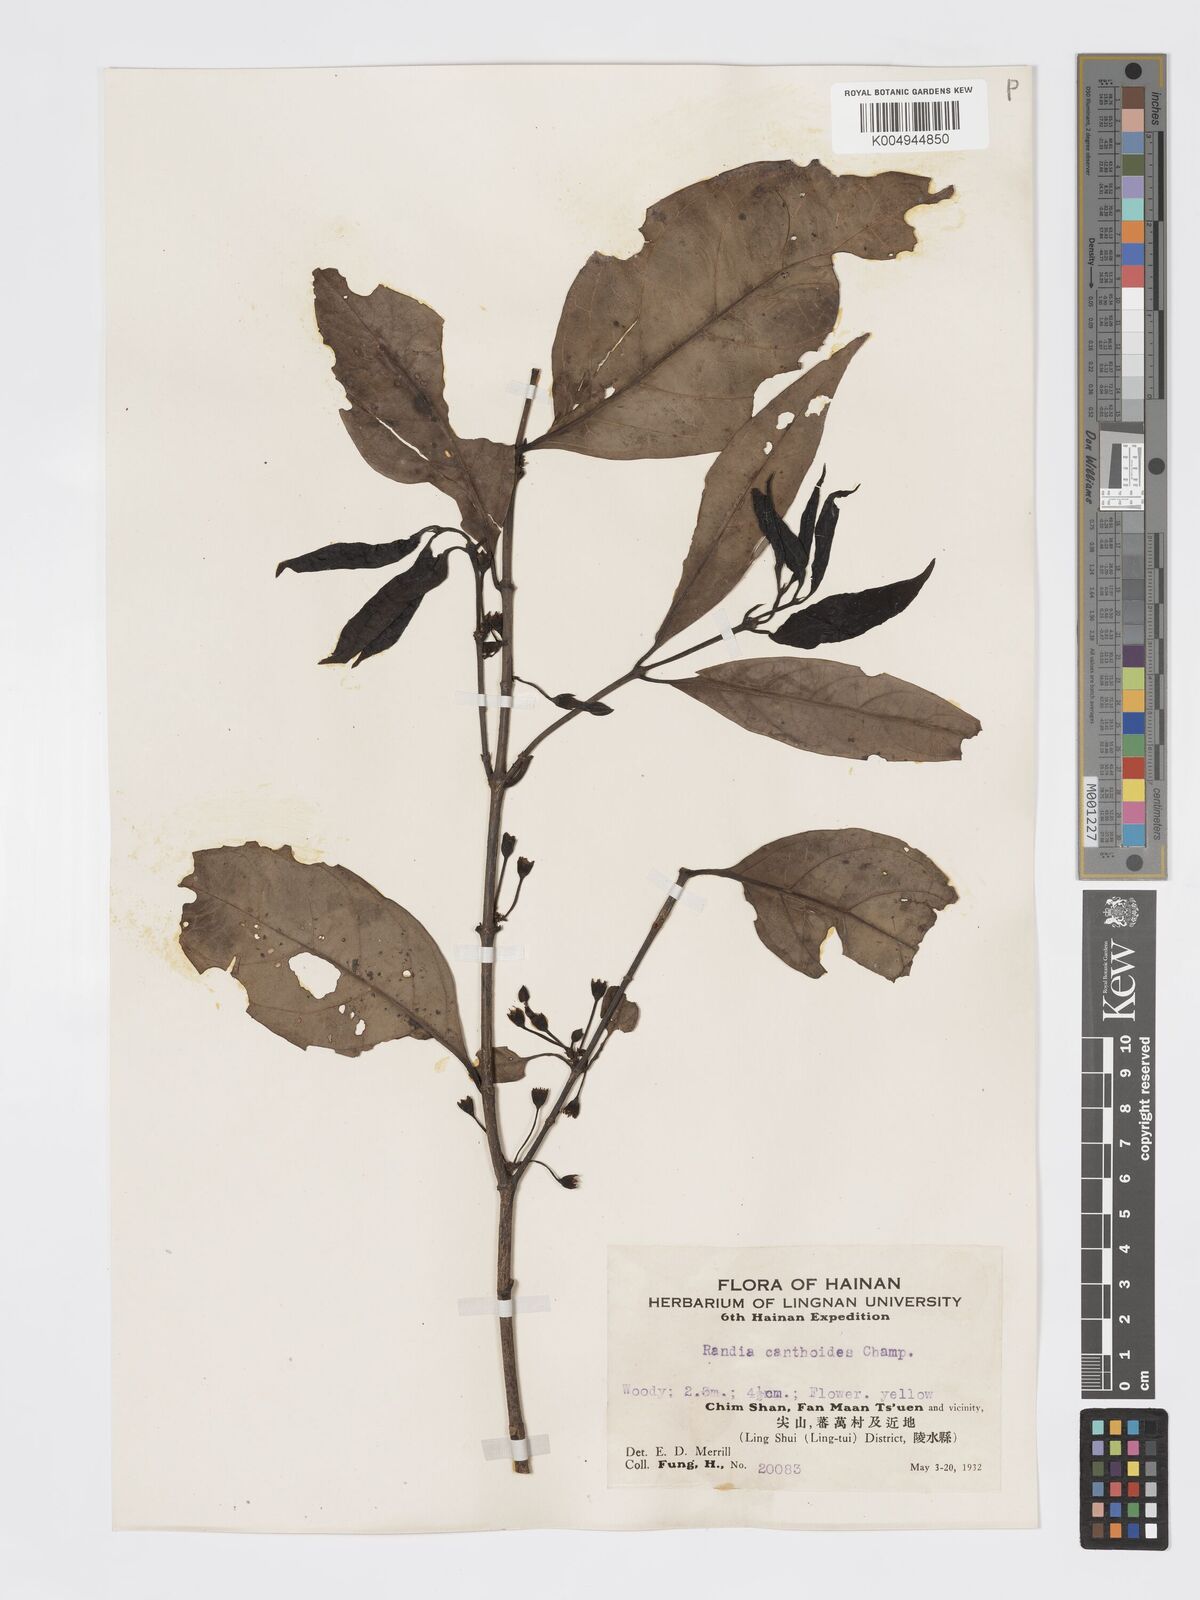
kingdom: Plantae
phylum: Tracheophyta
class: Magnoliopsida
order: Gentianales
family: Rubiaceae
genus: Aidia
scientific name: Aidia canthioides
